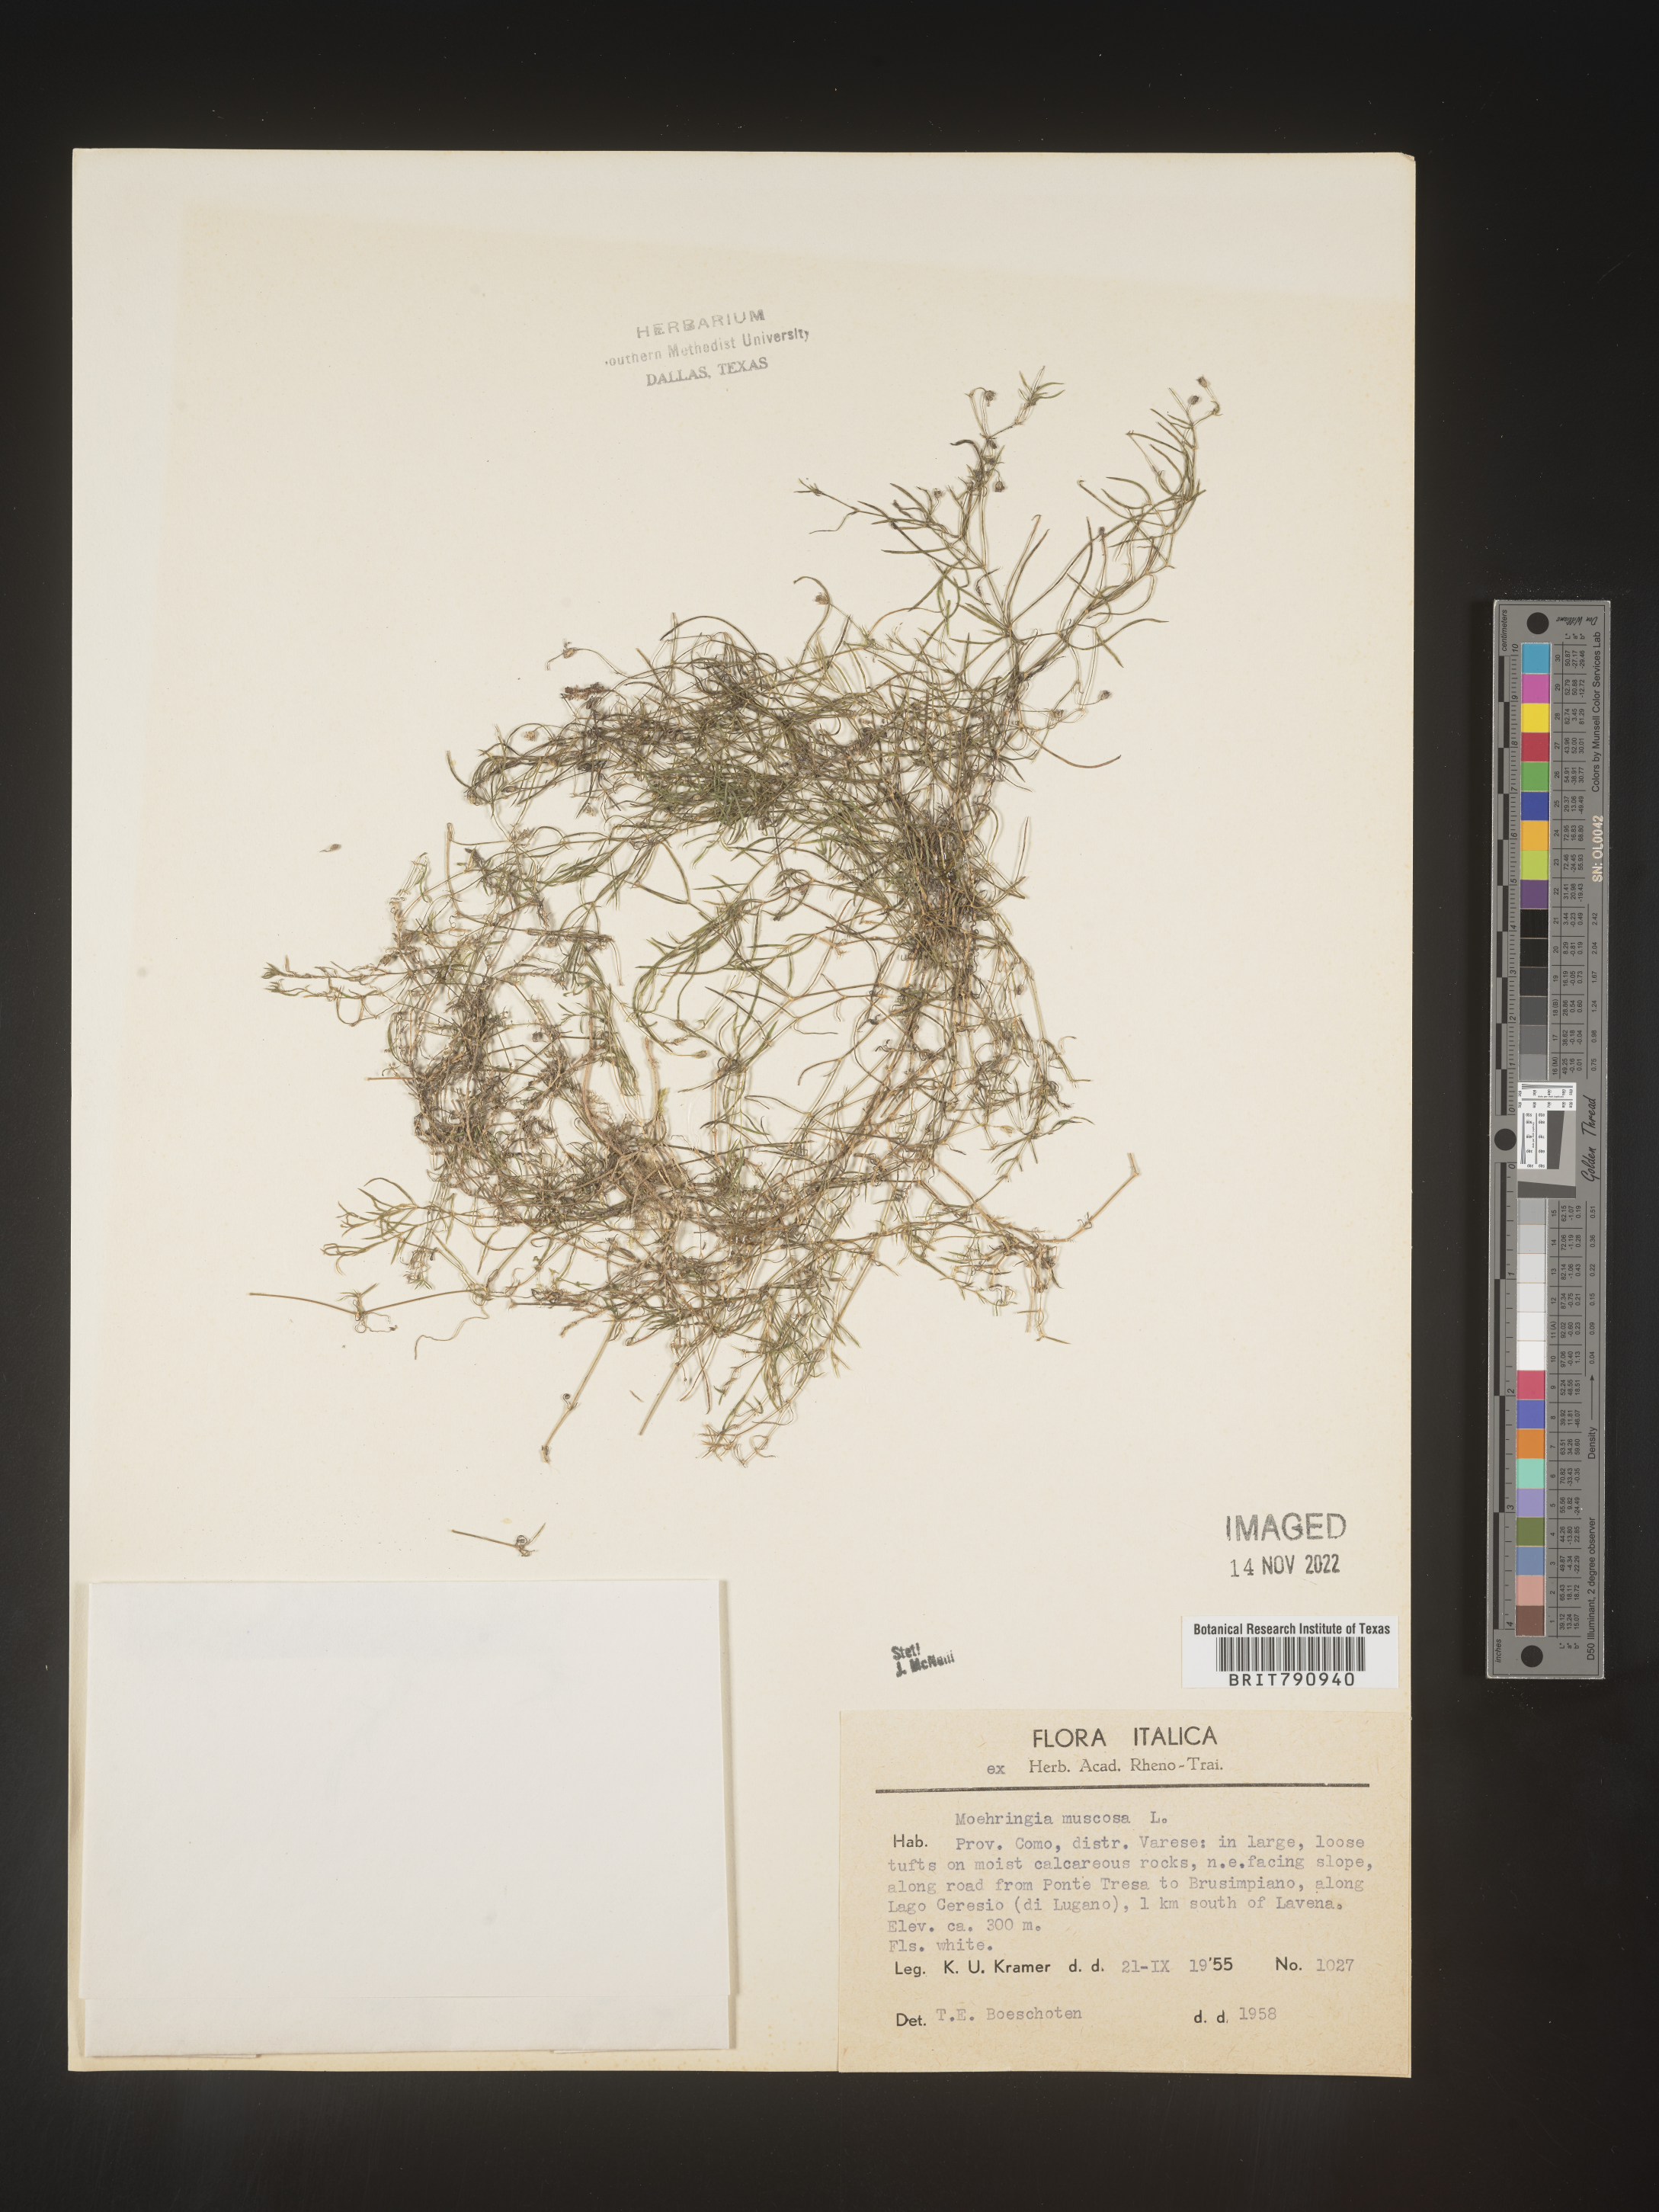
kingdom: Plantae
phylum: Tracheophyta
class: Magnoliopsida
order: Caryophyllales
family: Caryophyllaceae
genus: Moehringia
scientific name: Moehringia
